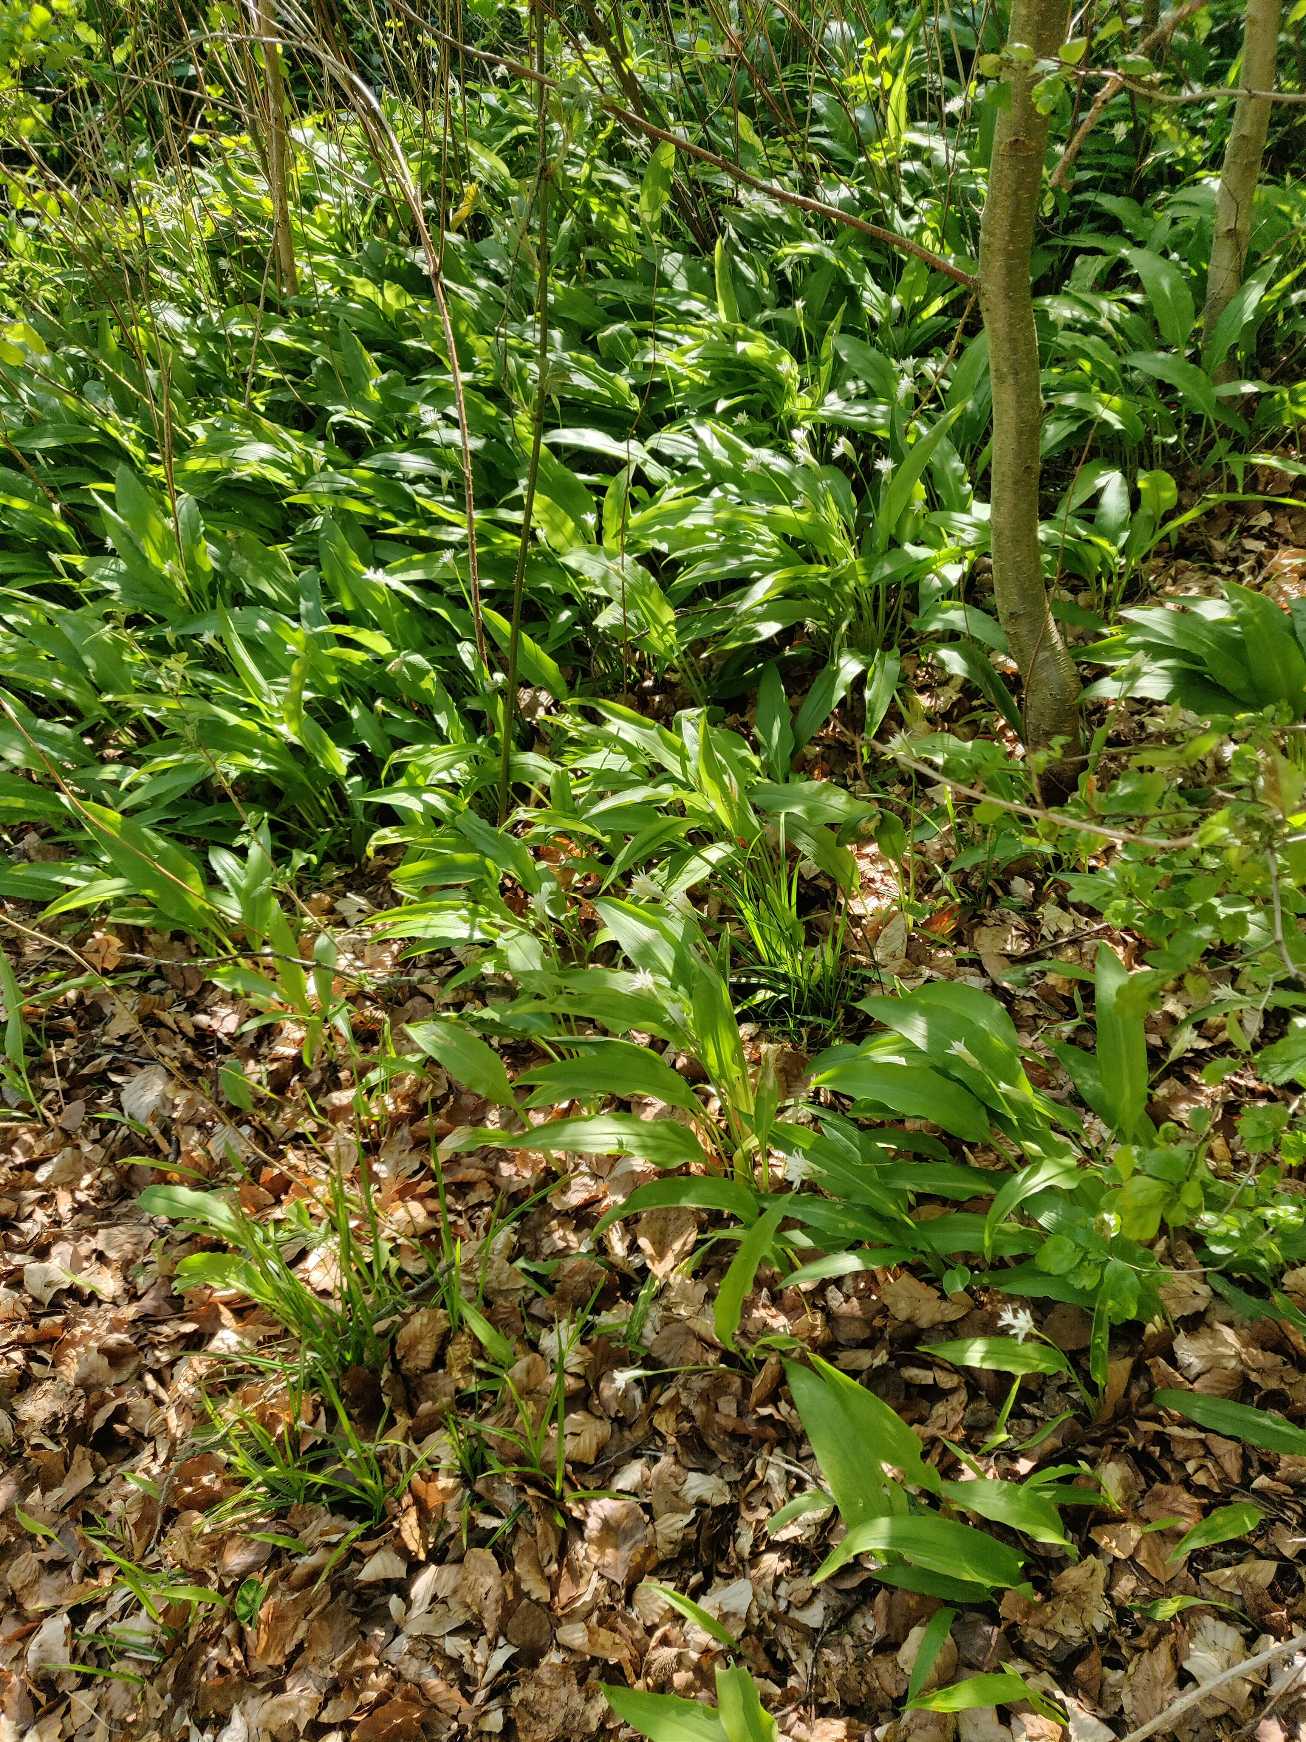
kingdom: Plantae
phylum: Tracheophyta
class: Liliopsida
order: Asparagales
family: Amaryllidaceae
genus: Allium
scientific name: Allium ursinum
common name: Rams-løg
